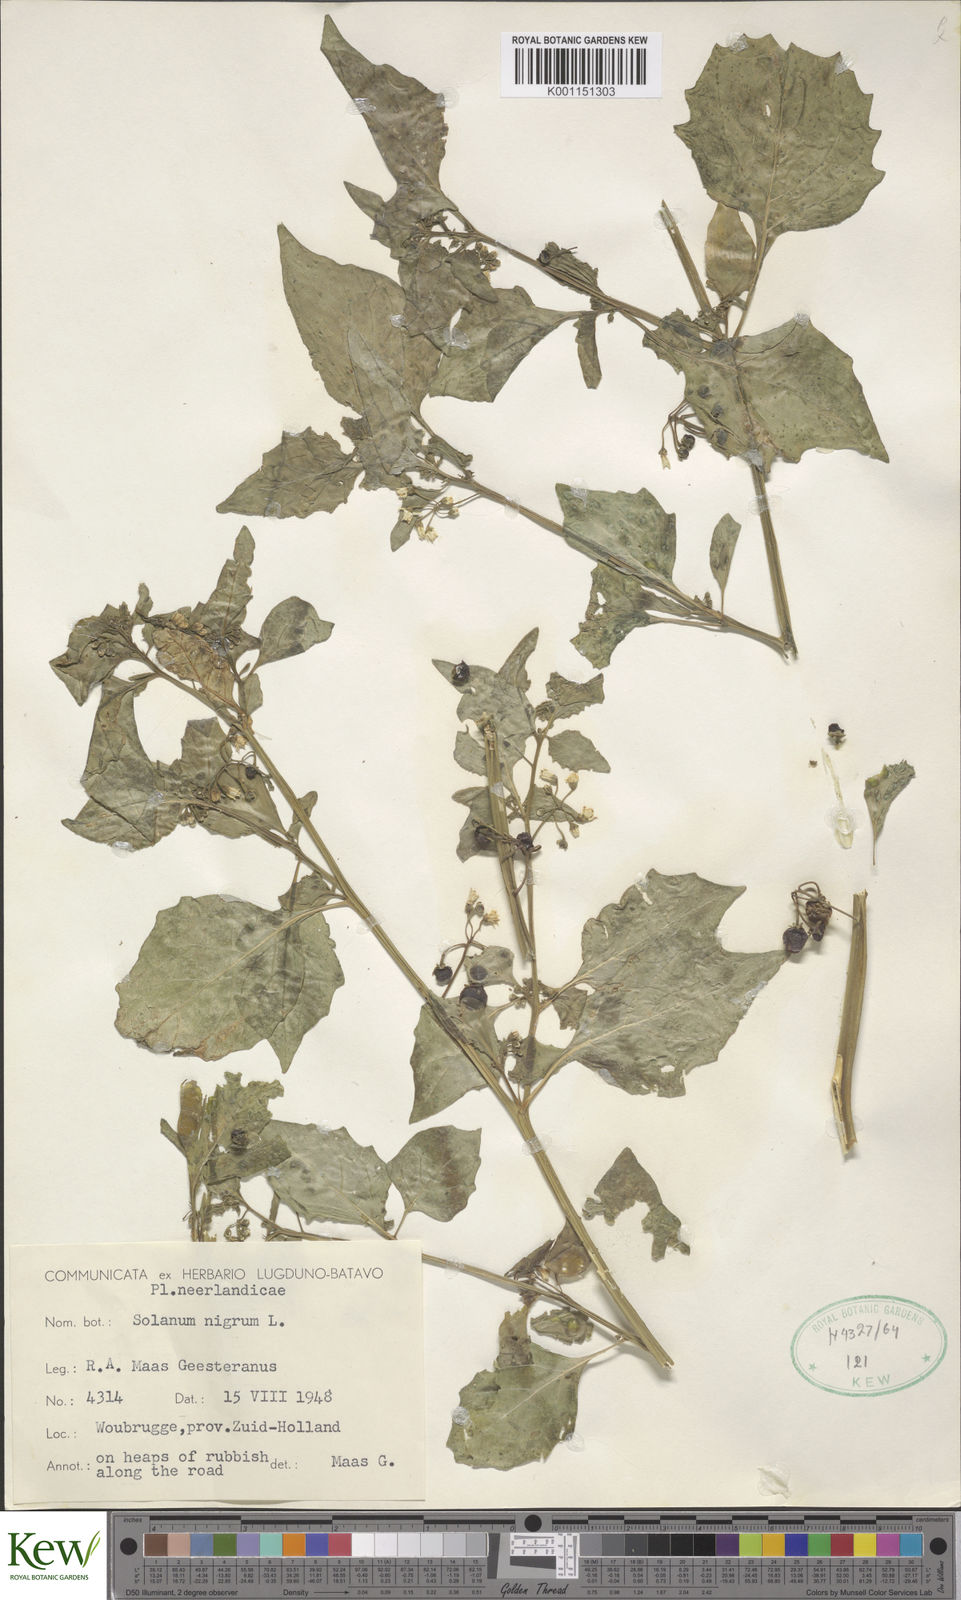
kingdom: Plantae
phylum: Tracheophyta
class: Magnoliopsida
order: Solanales
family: Solanaceae
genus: Solanum
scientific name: Solanum nigrum
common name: Black nightshade
